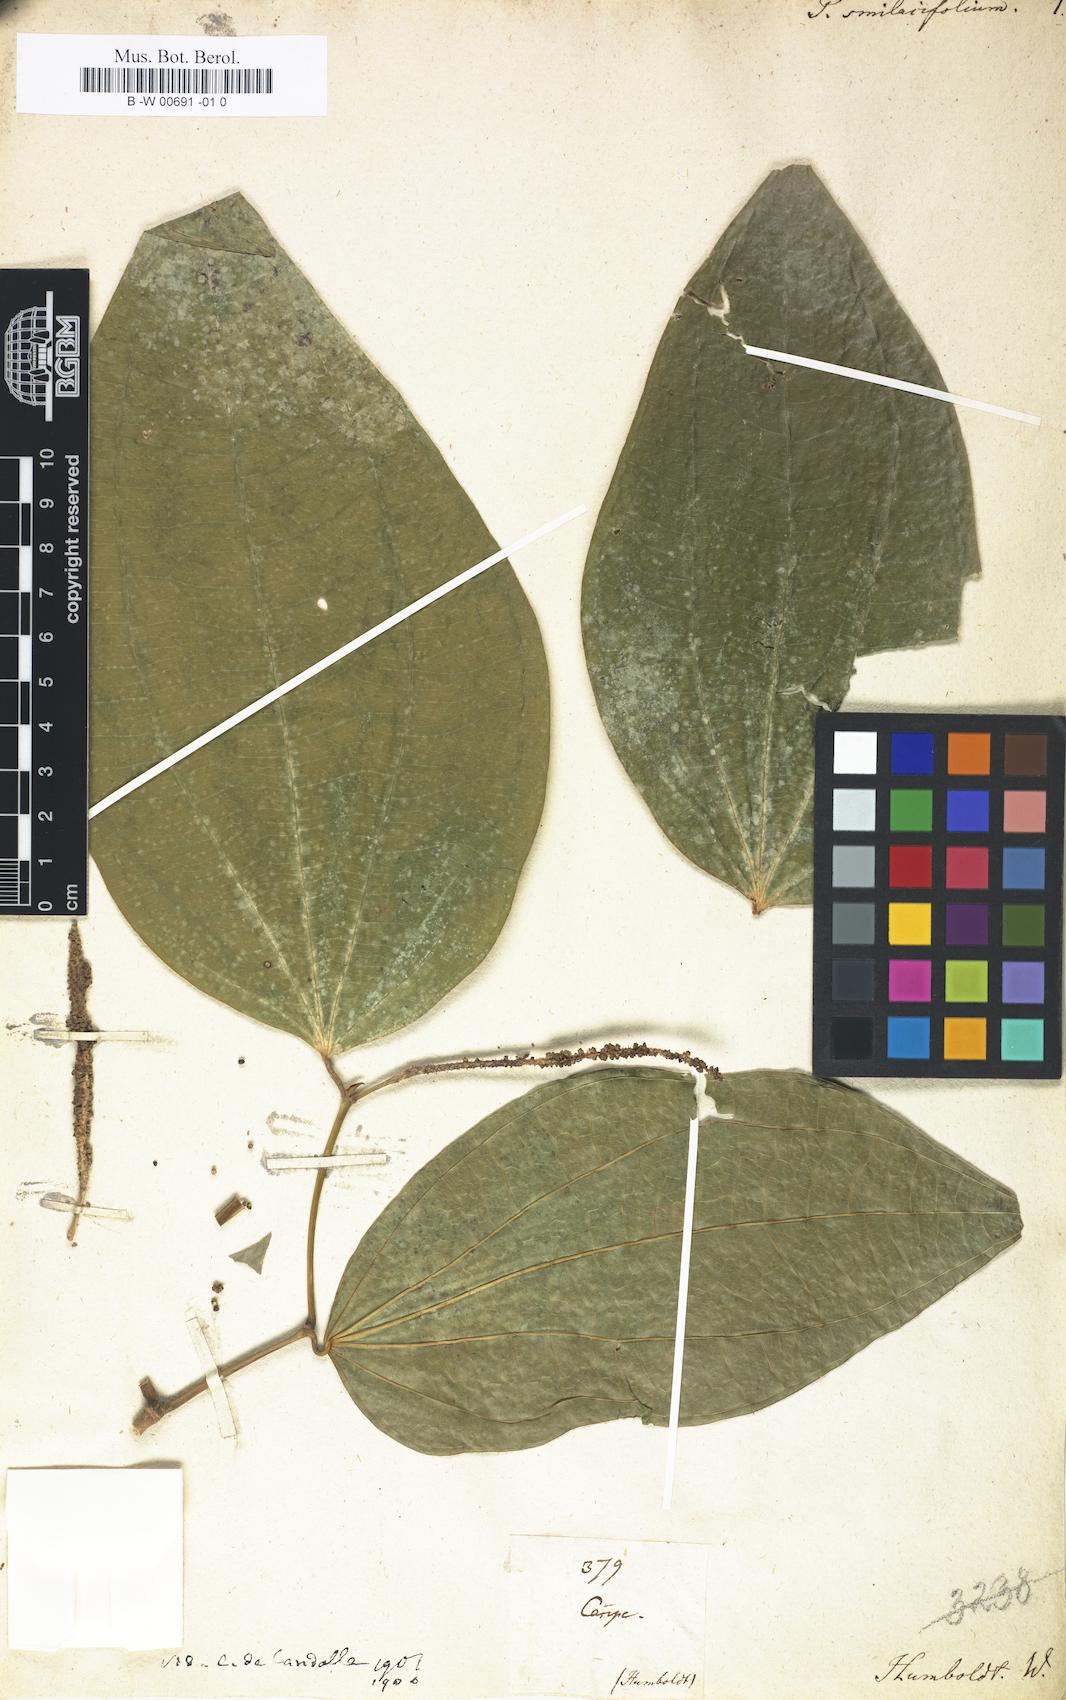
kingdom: Plantae
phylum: Tracheophyta
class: Magnoliopsida
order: Piperales
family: Piperaceae
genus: Piper
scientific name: Piper laevigatum
